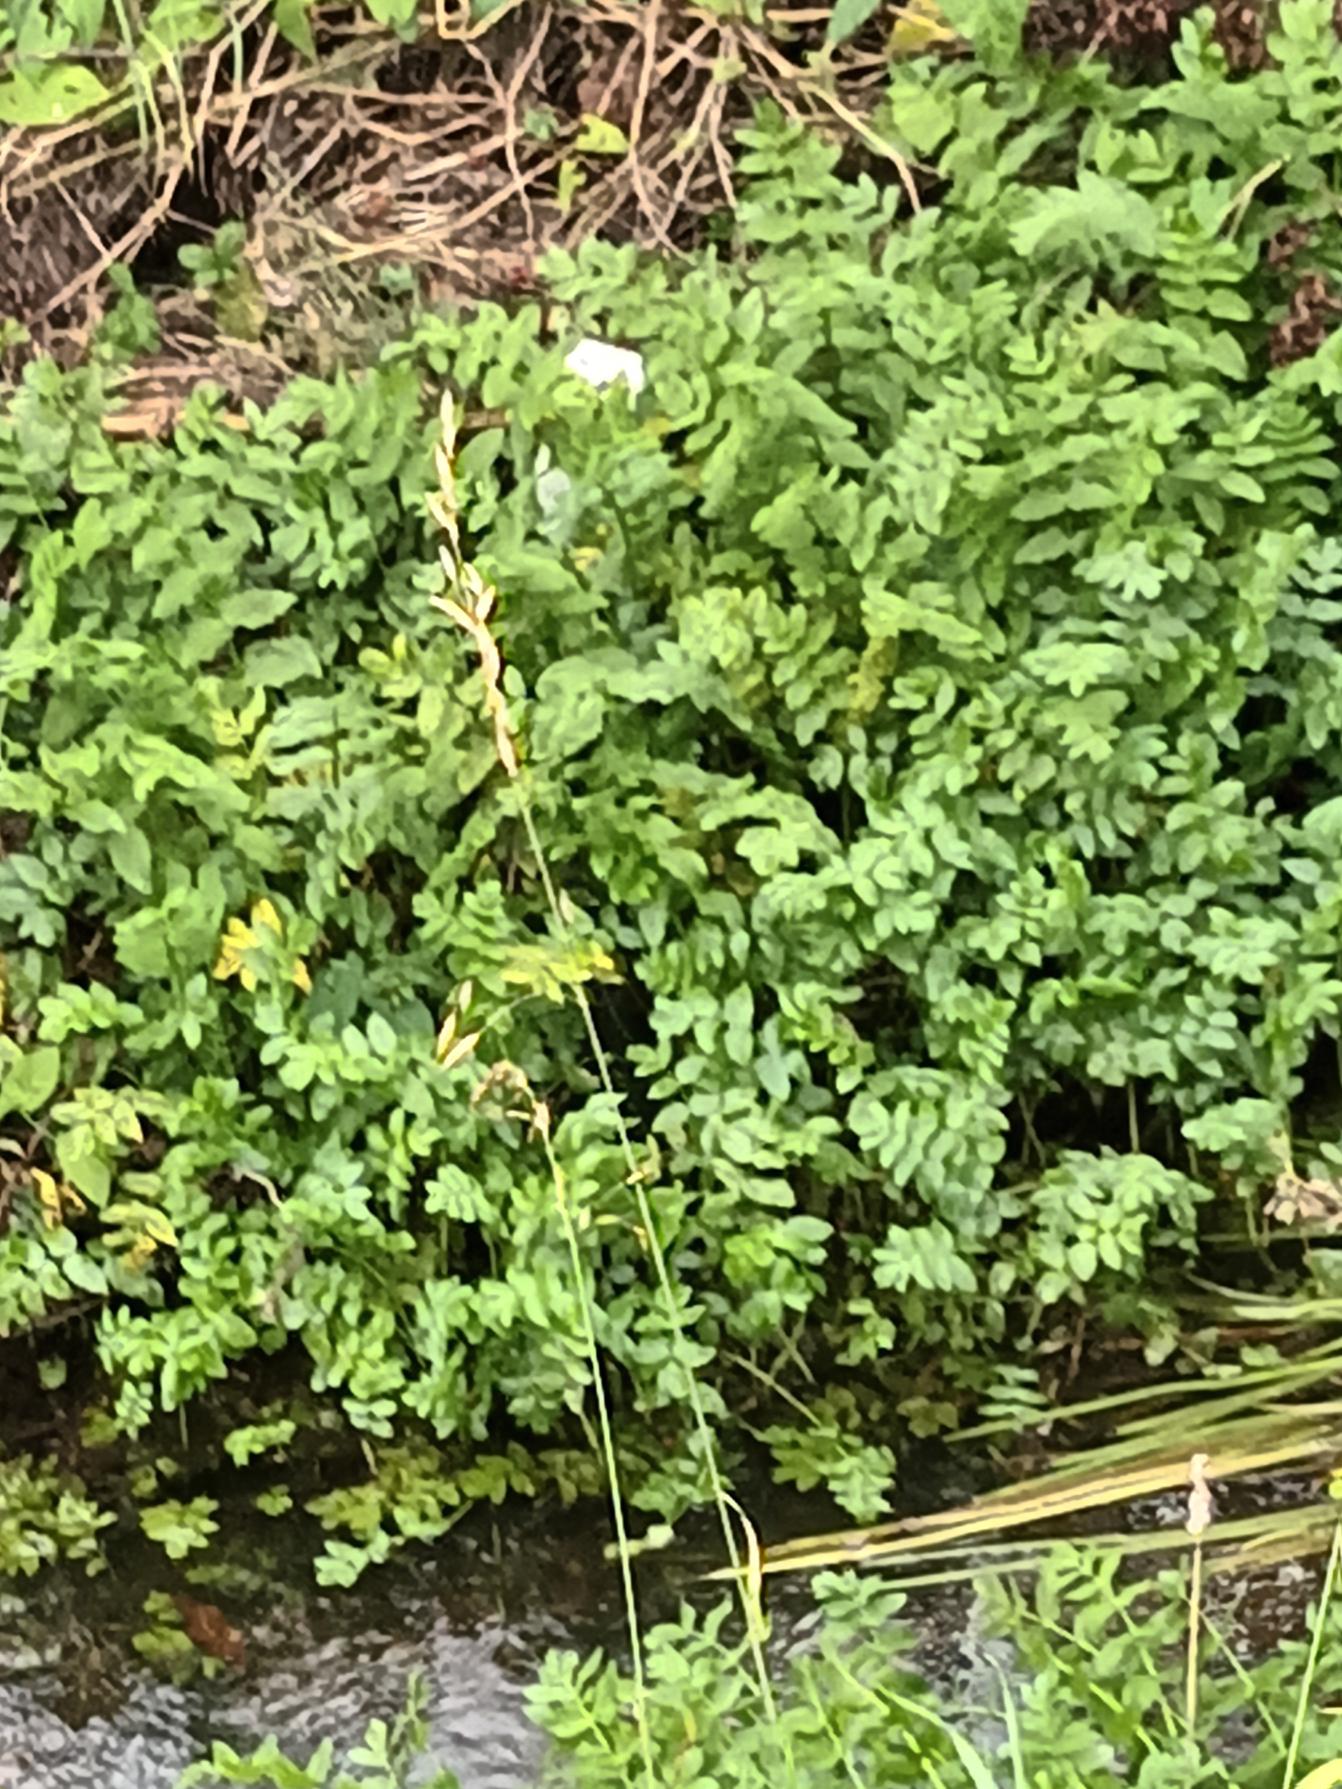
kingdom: Plantae
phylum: Tracheophyta
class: Magnoliopsida
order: Apiales
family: Apiaceae
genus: Berula
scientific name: Berula erecta
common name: Sideskærm
